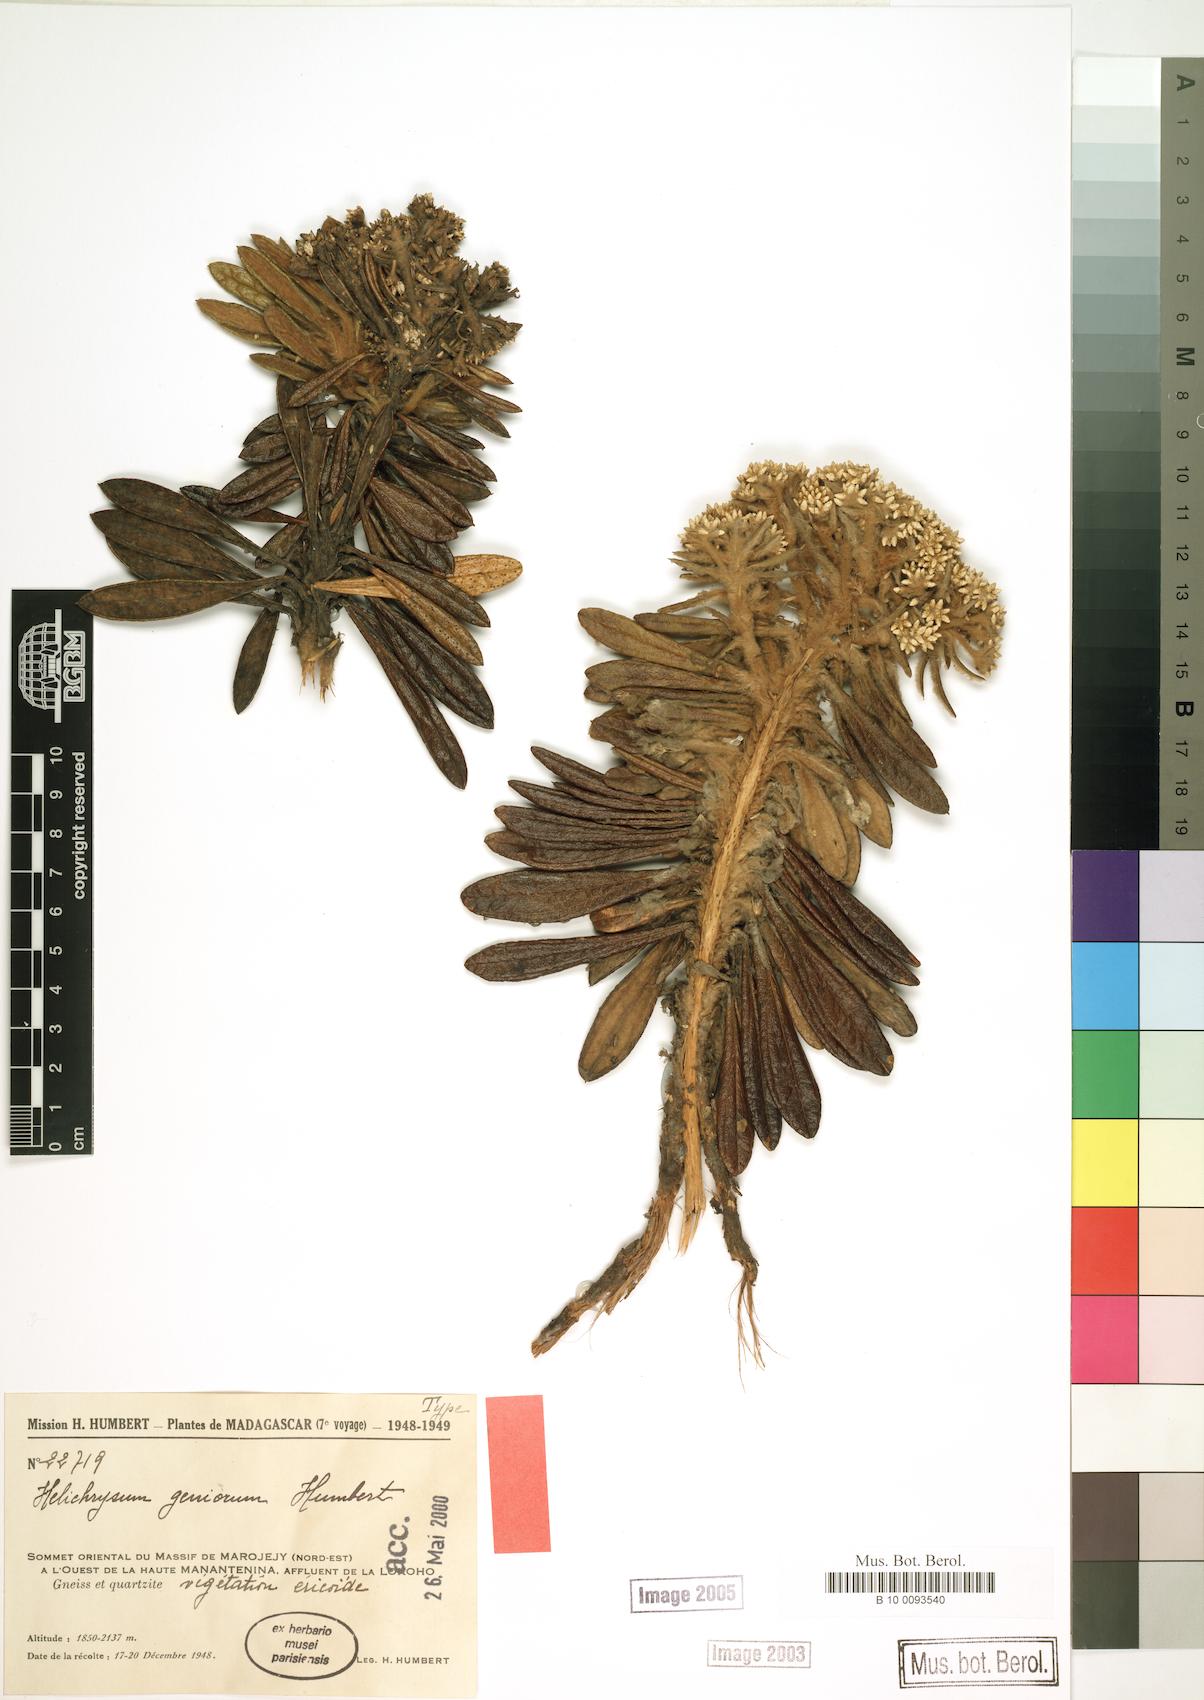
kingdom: Plantae
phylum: Tracheophyta
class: Magnoliopsida
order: Asterales
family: Asteraceae
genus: Helichrysum
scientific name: Helichrysum geniorum
